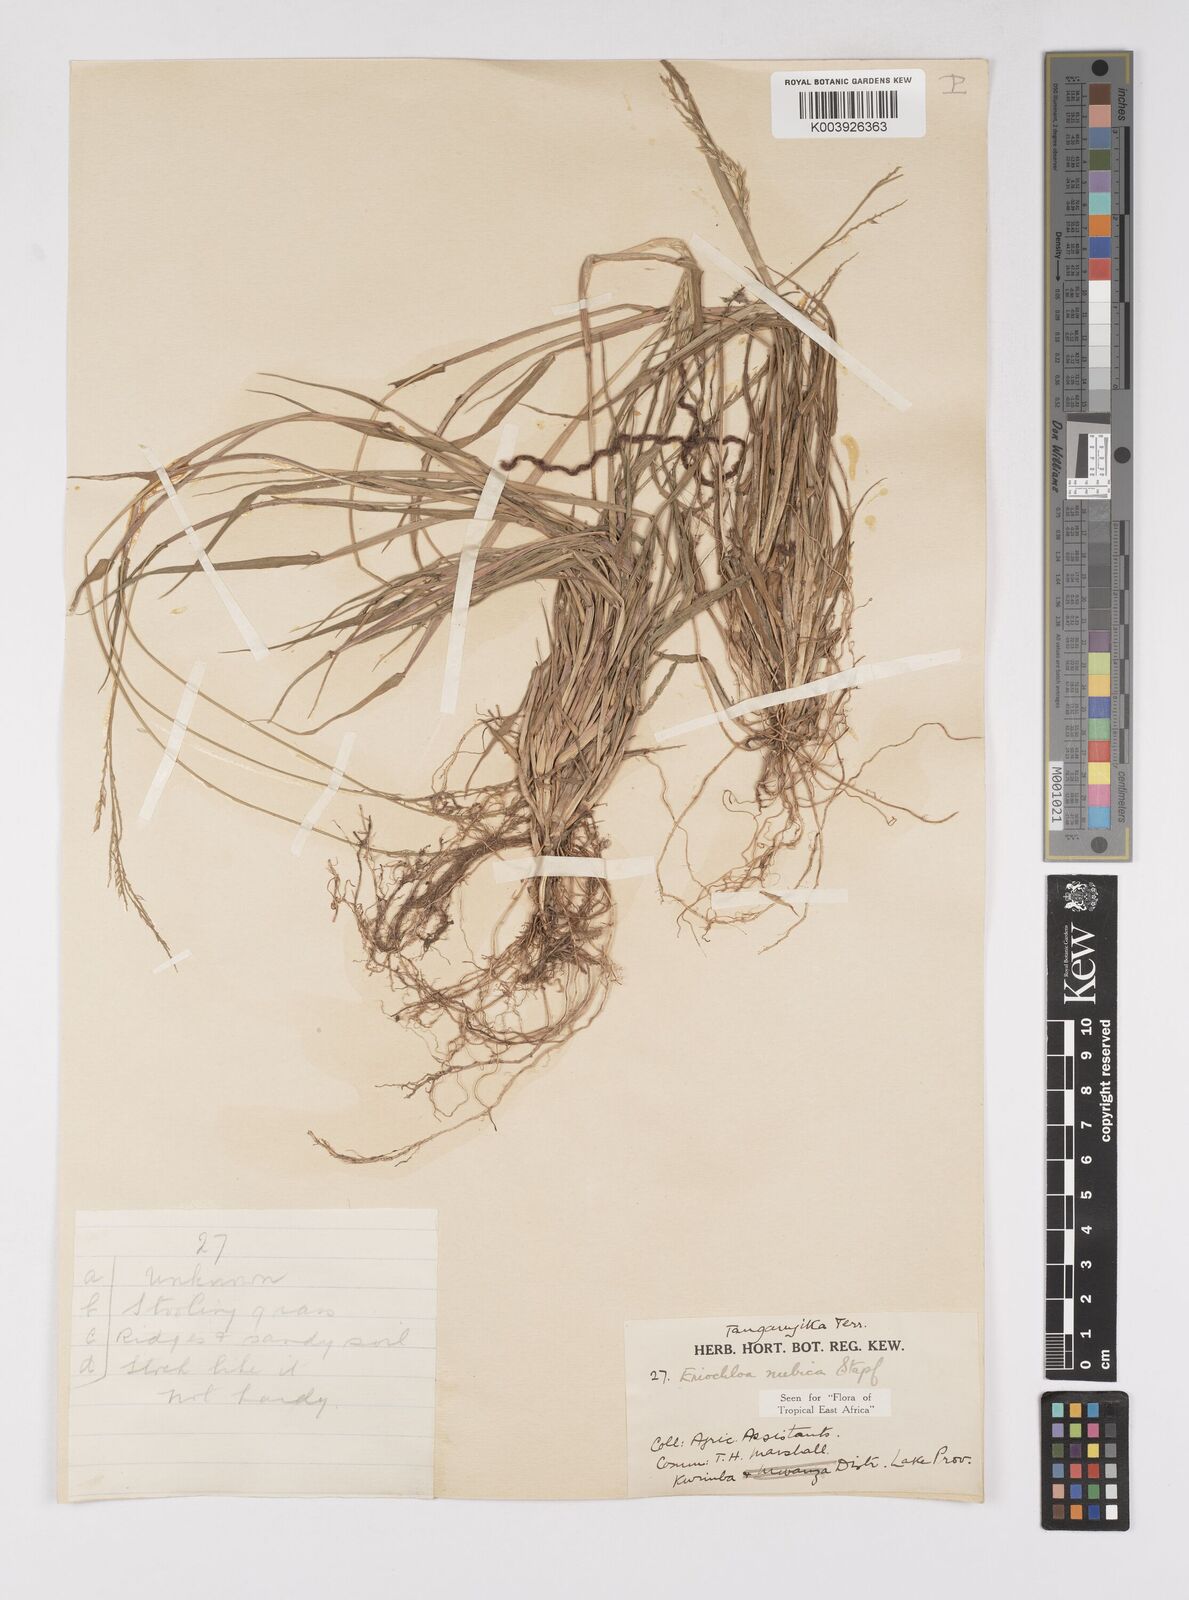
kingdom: Plantae
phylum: Tracheophyta
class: Liliopsida
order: Poales
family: Poaceae
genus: Eriochloa
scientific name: Eriochloa barbatus
